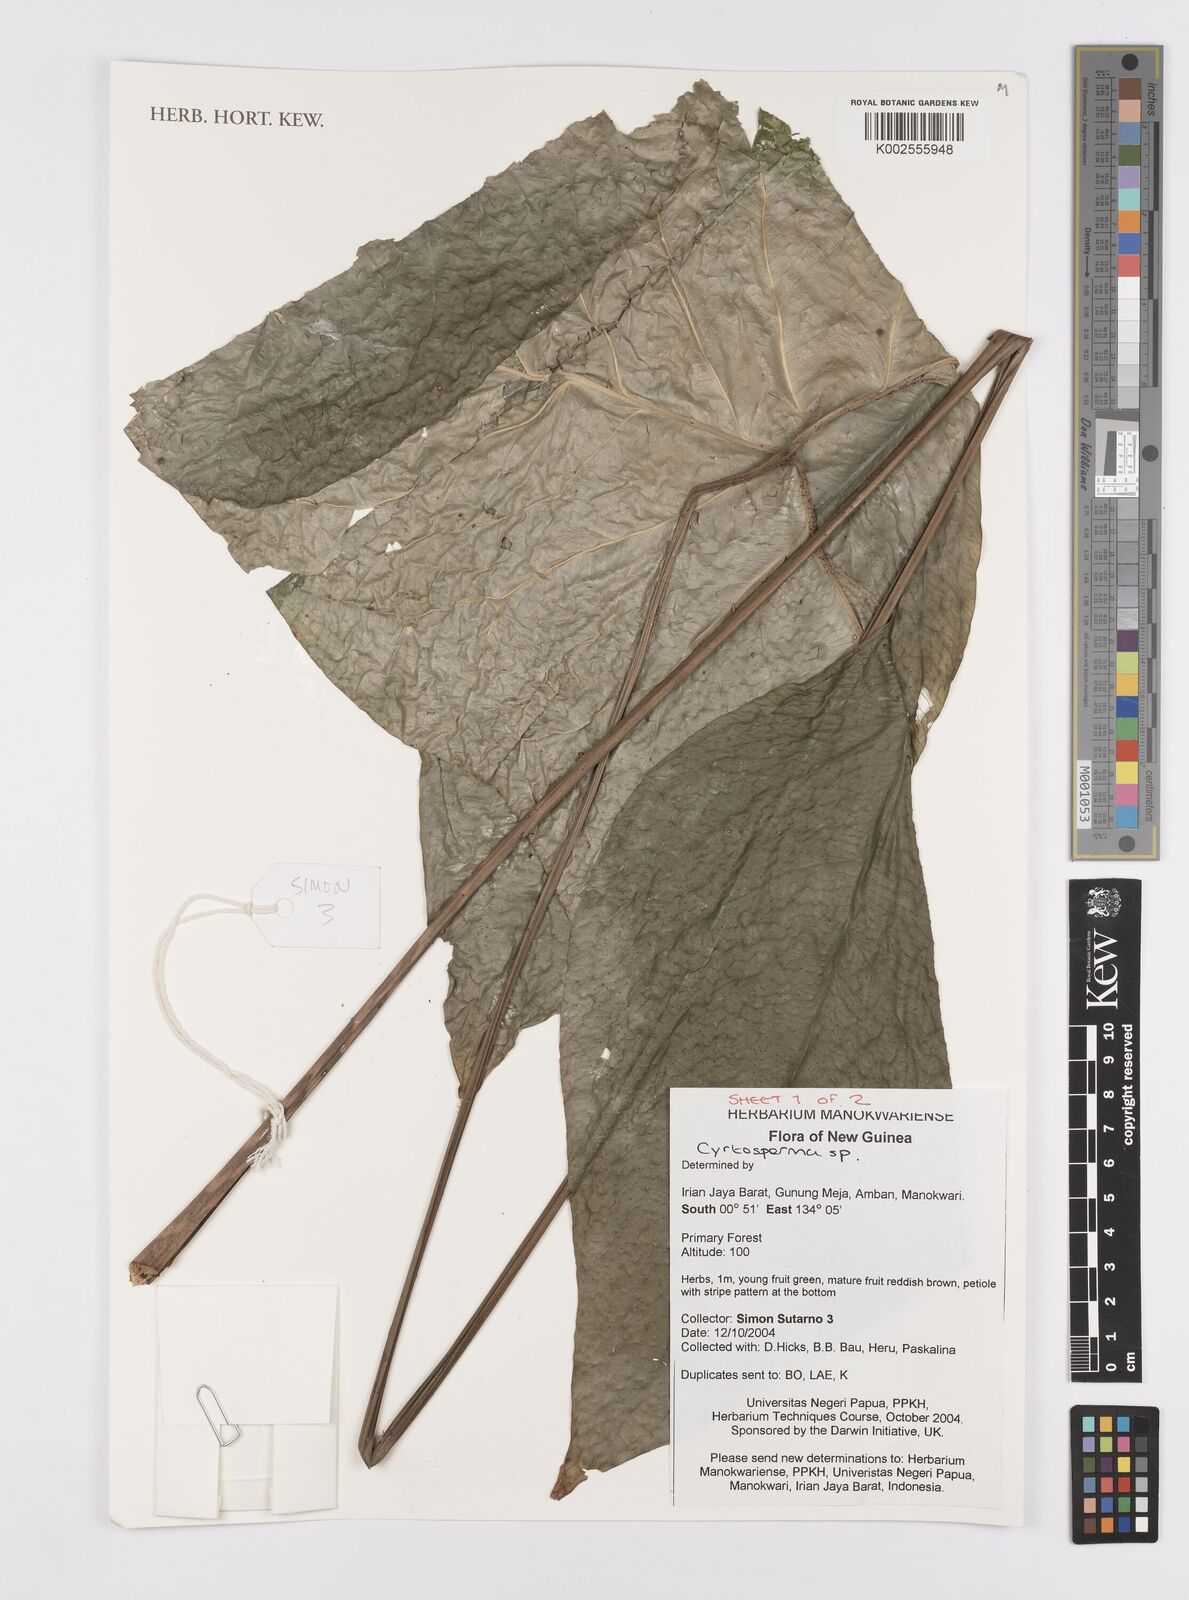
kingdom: Plantae
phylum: Tracheophyta
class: Liliopsida
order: Alismatales
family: Araceae
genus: Cyrtosperma
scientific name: Cyrtosperma
